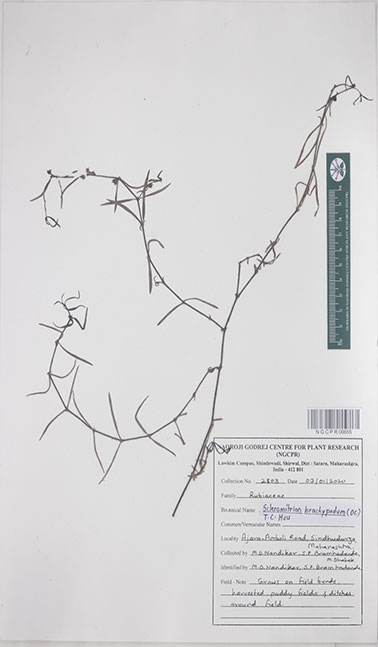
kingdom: Plantae
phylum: Tracheophyta
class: Magnoliopsida
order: Gentianales
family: Rubiaceae
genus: Scleromitrion
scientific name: Scleromitrion brachypodum
